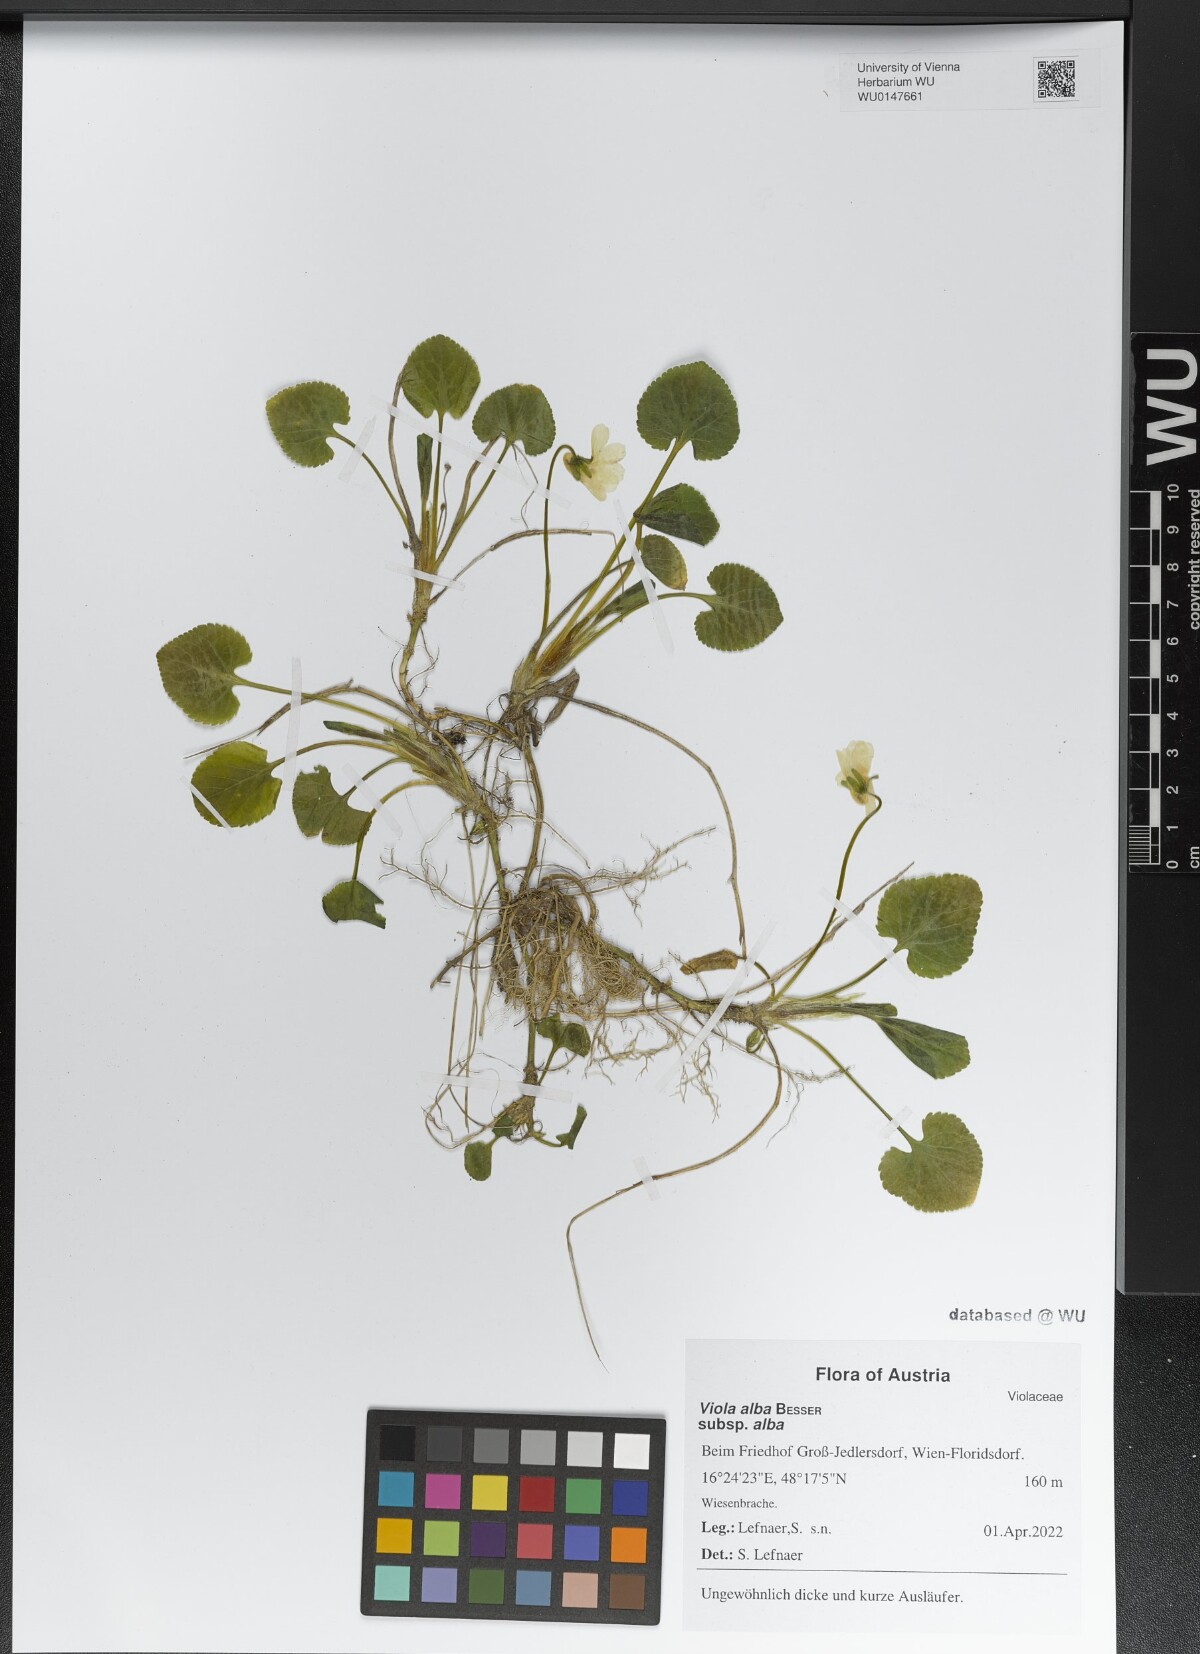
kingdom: Plantae
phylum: Tracheophyta
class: Magnoliopsida
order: Malpighiales
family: Violaceae
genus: Viola
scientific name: Viola alba
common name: White violet
